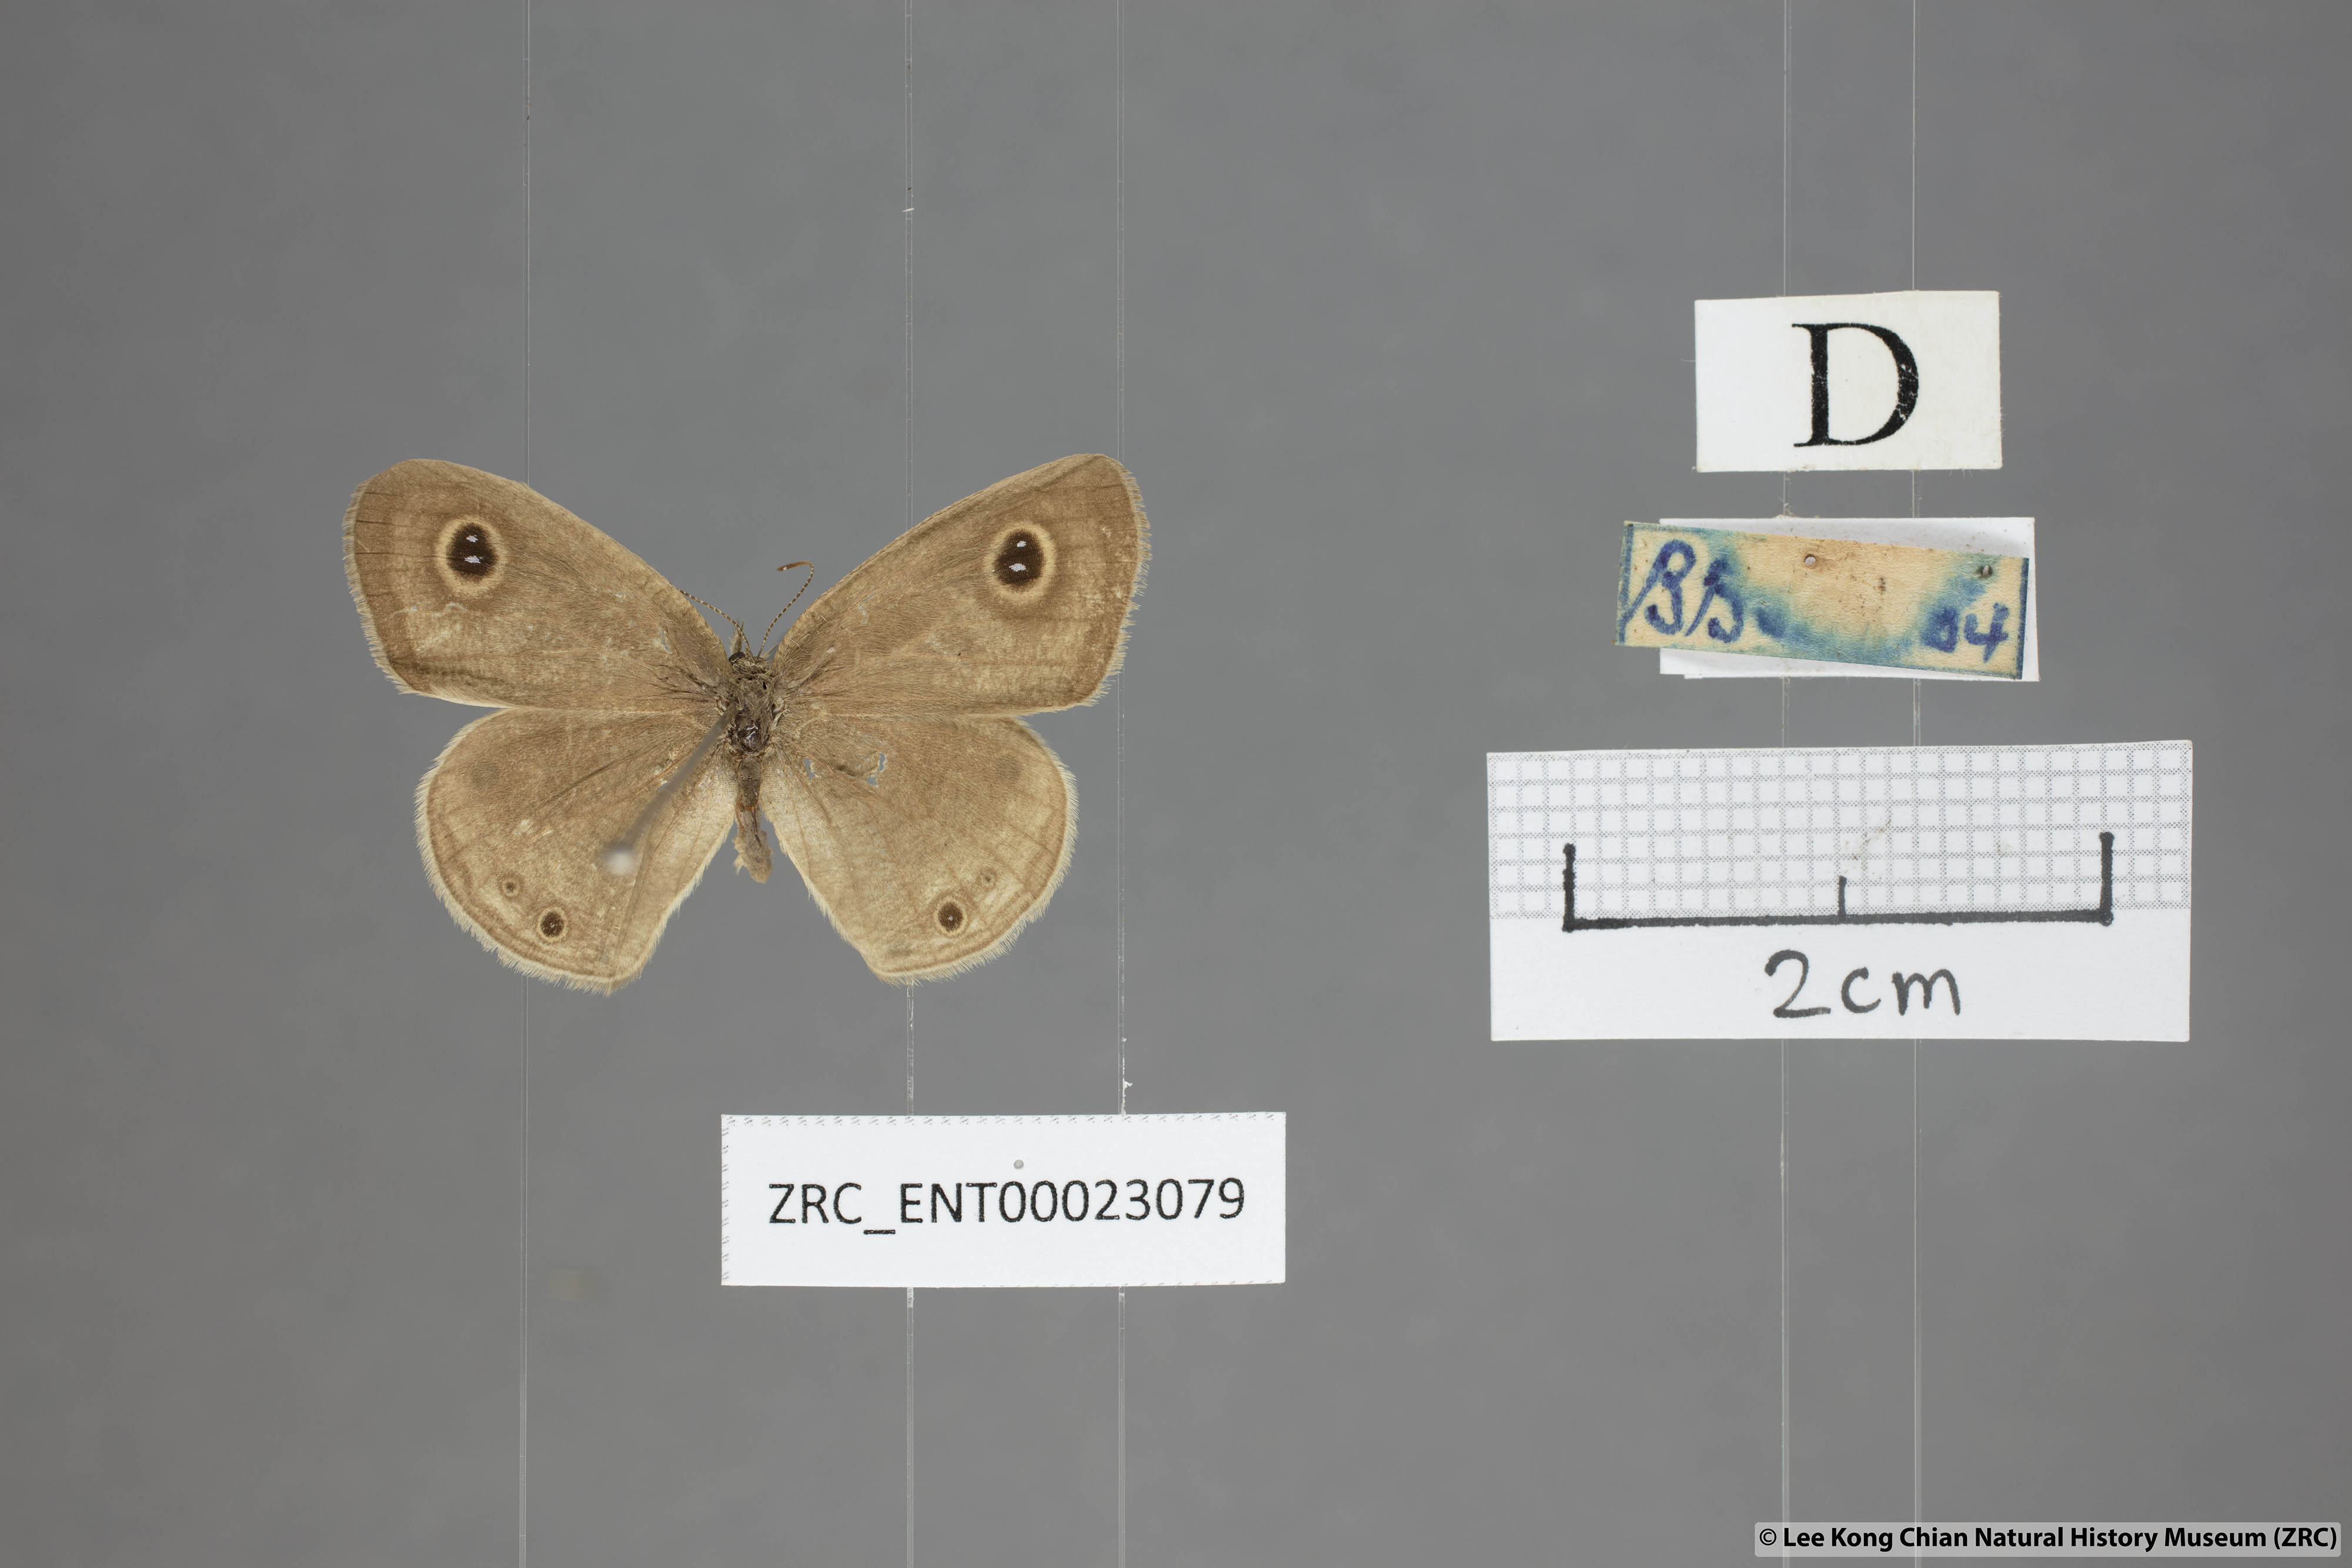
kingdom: Animalia
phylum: Arthropoda
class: Insecta
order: Lepidoptera
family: Nymphalidae
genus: Ypthima
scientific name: Ypthima huebneri
